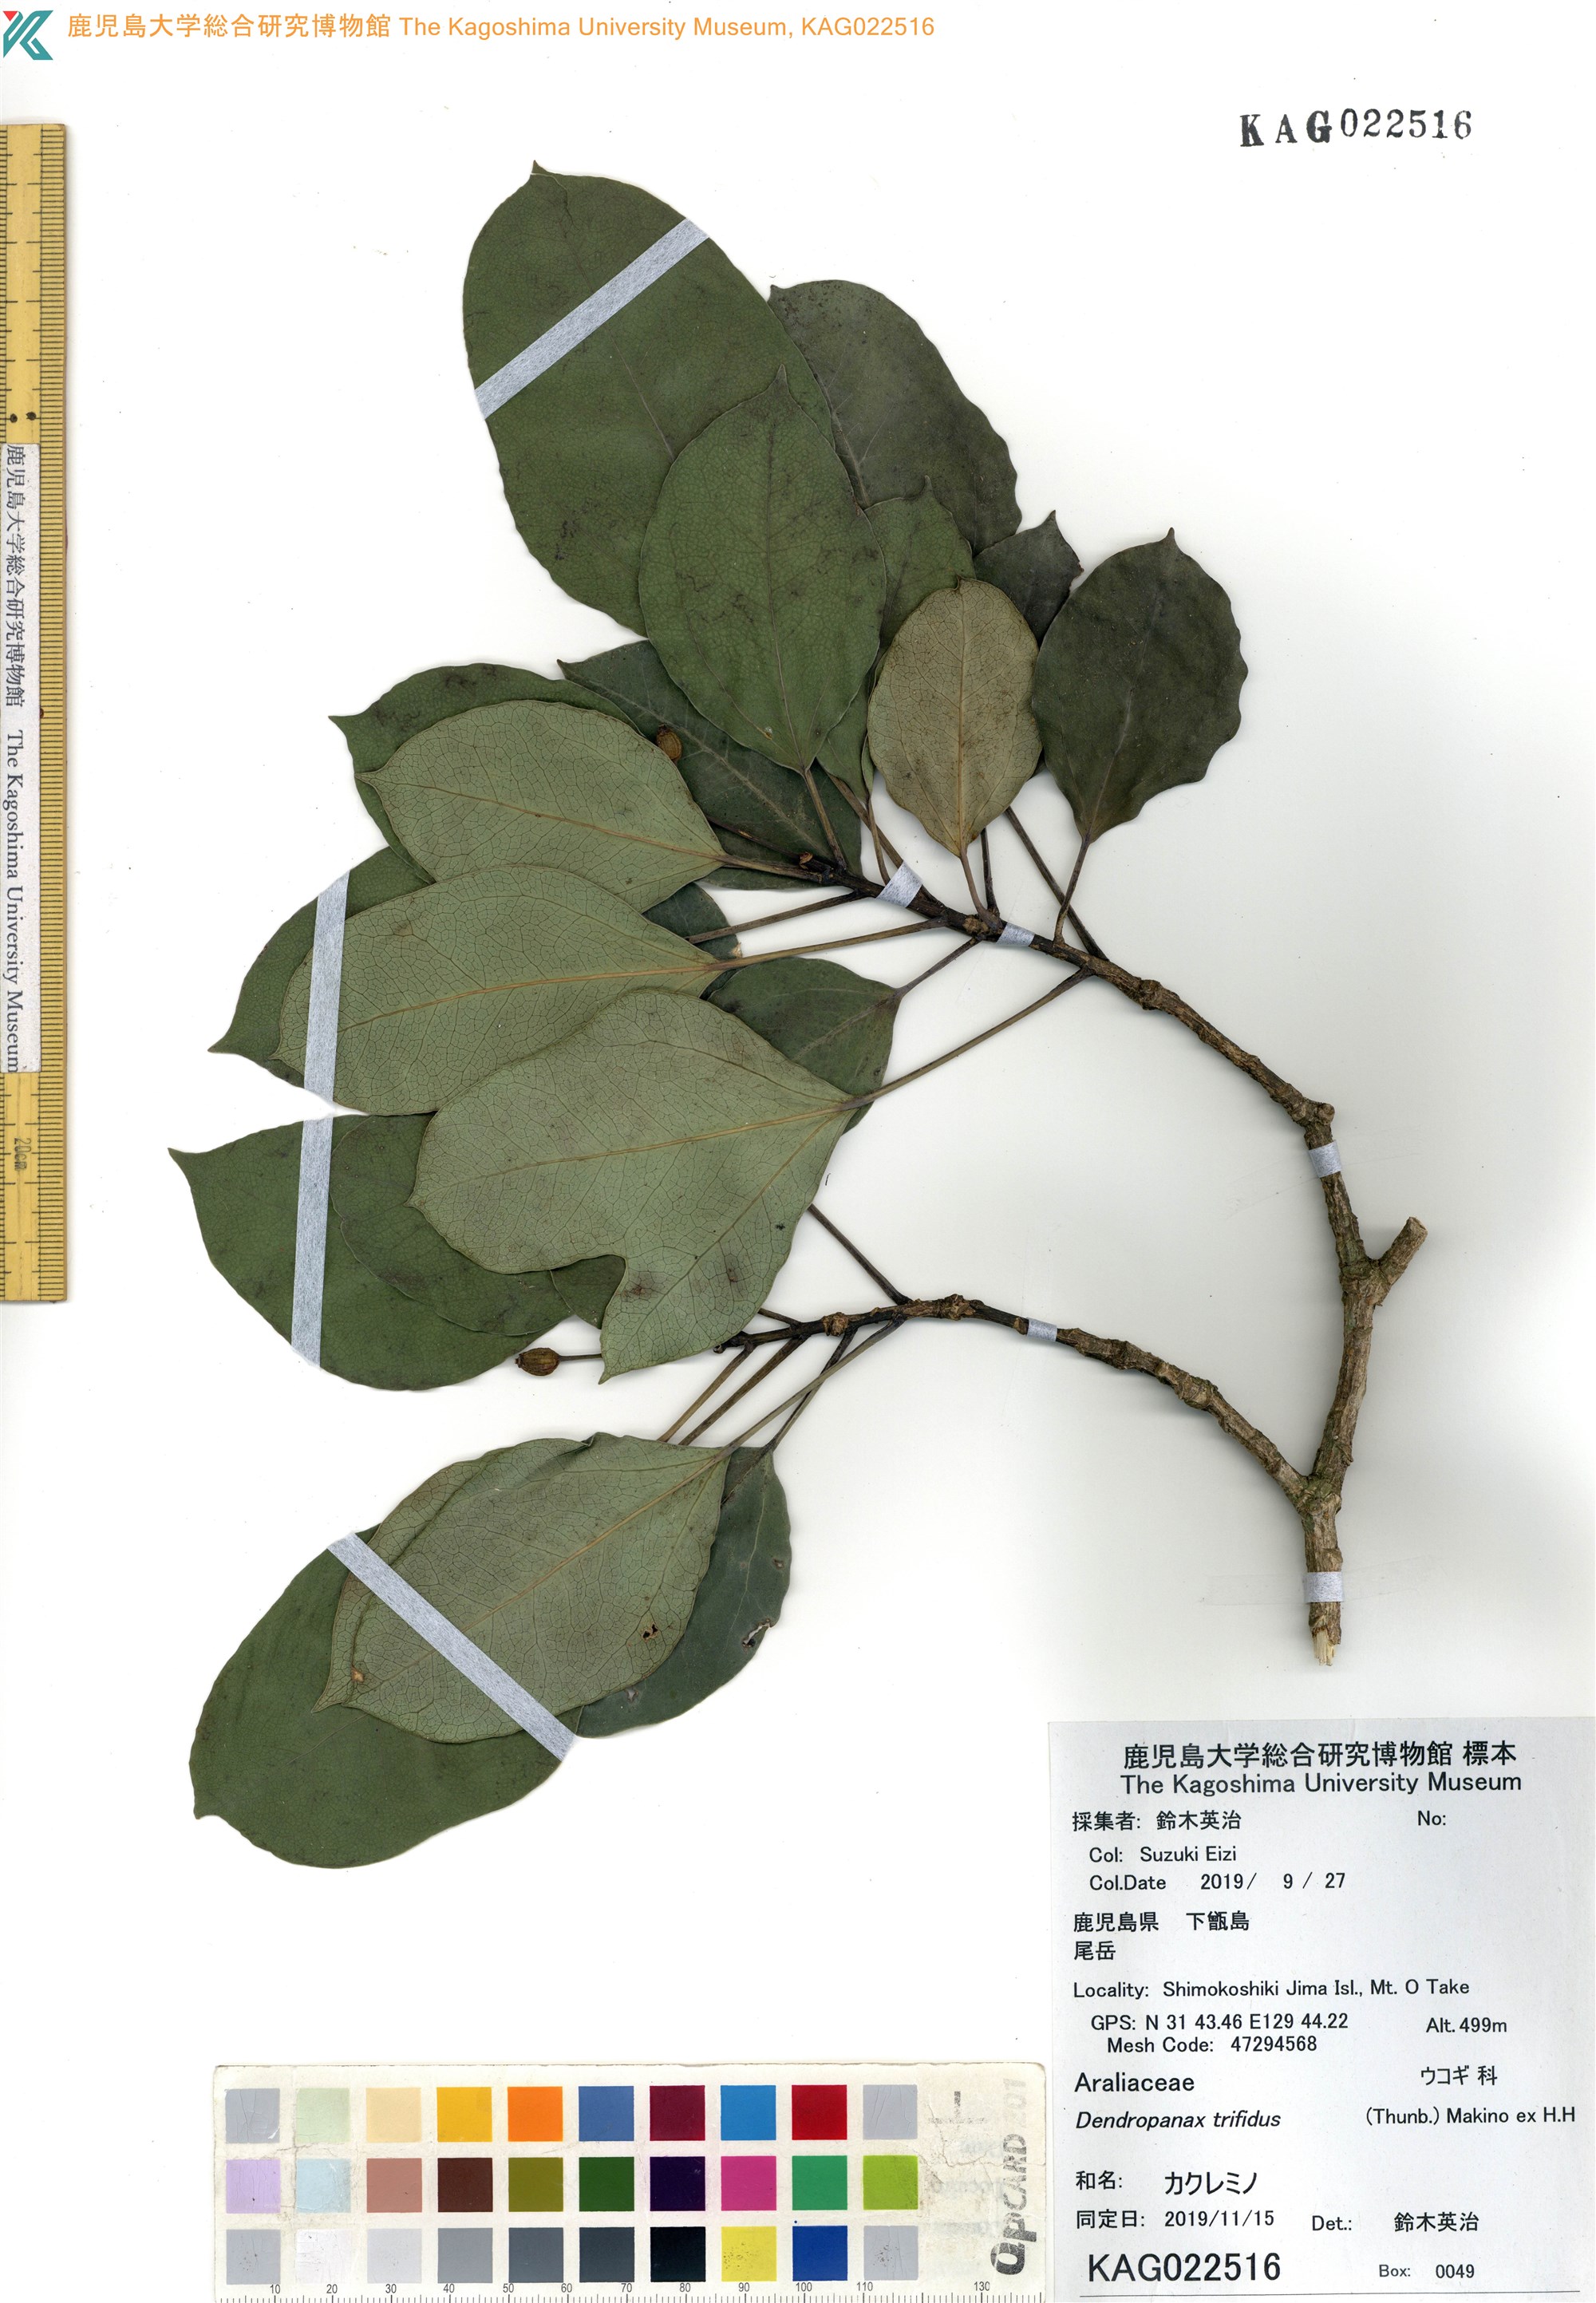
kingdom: Plantae
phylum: Tracheophyta
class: Magnoliopsida
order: Apiales
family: Araliaceae
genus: Dendropanax
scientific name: Dendropanax trifidus
